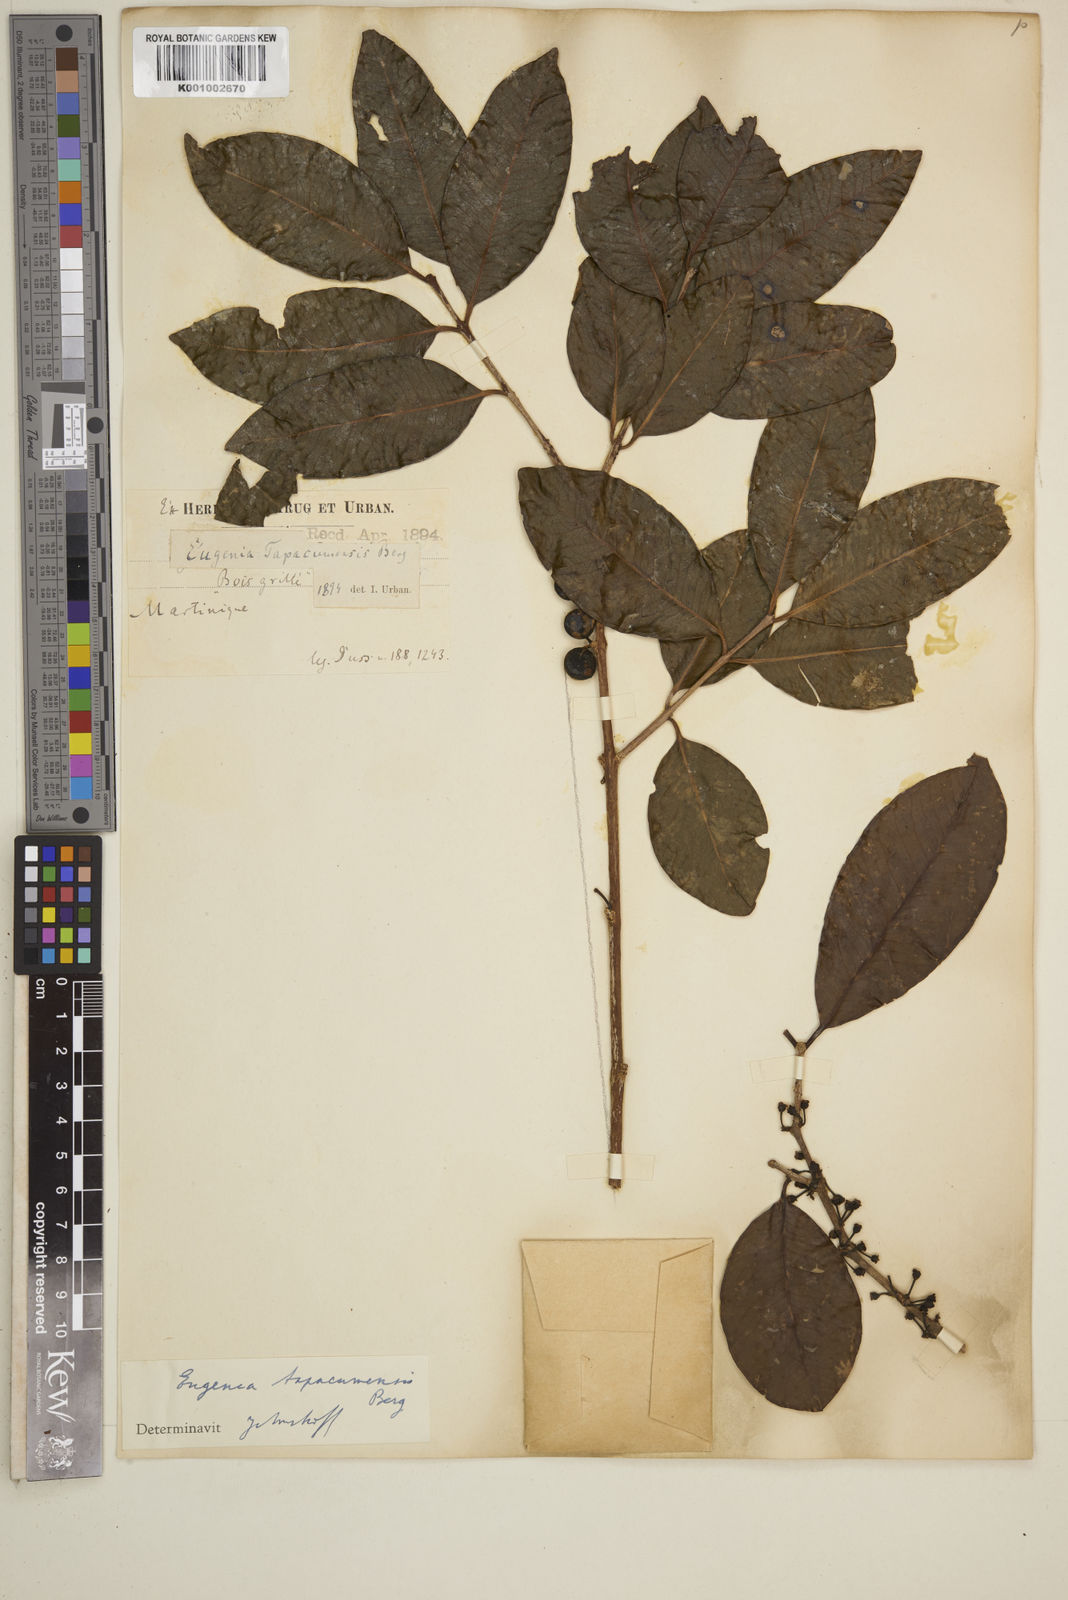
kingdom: Plantae
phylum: Tracheophyta
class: Magnoliopsida
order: Myrtales
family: Myrtaceae
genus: Eugenia
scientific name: Eugenia tapacumensis
